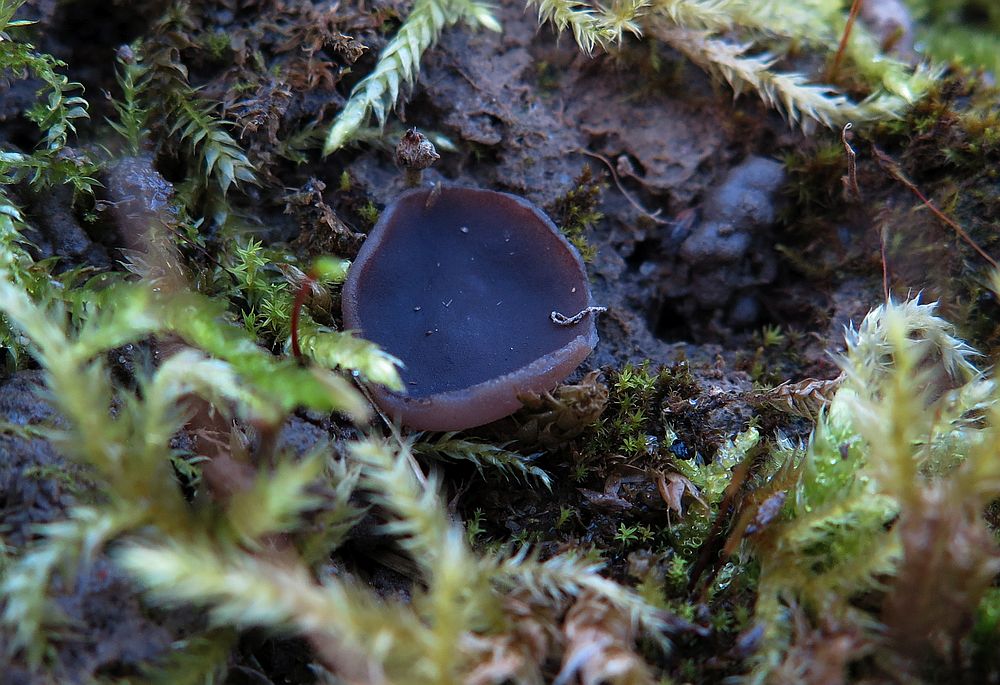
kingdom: Fungi
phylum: Ascomycota
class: Pezizomycetes
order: Pezizales
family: Pezizaceae
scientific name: Pezizaceae
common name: bægersvampfamilien
